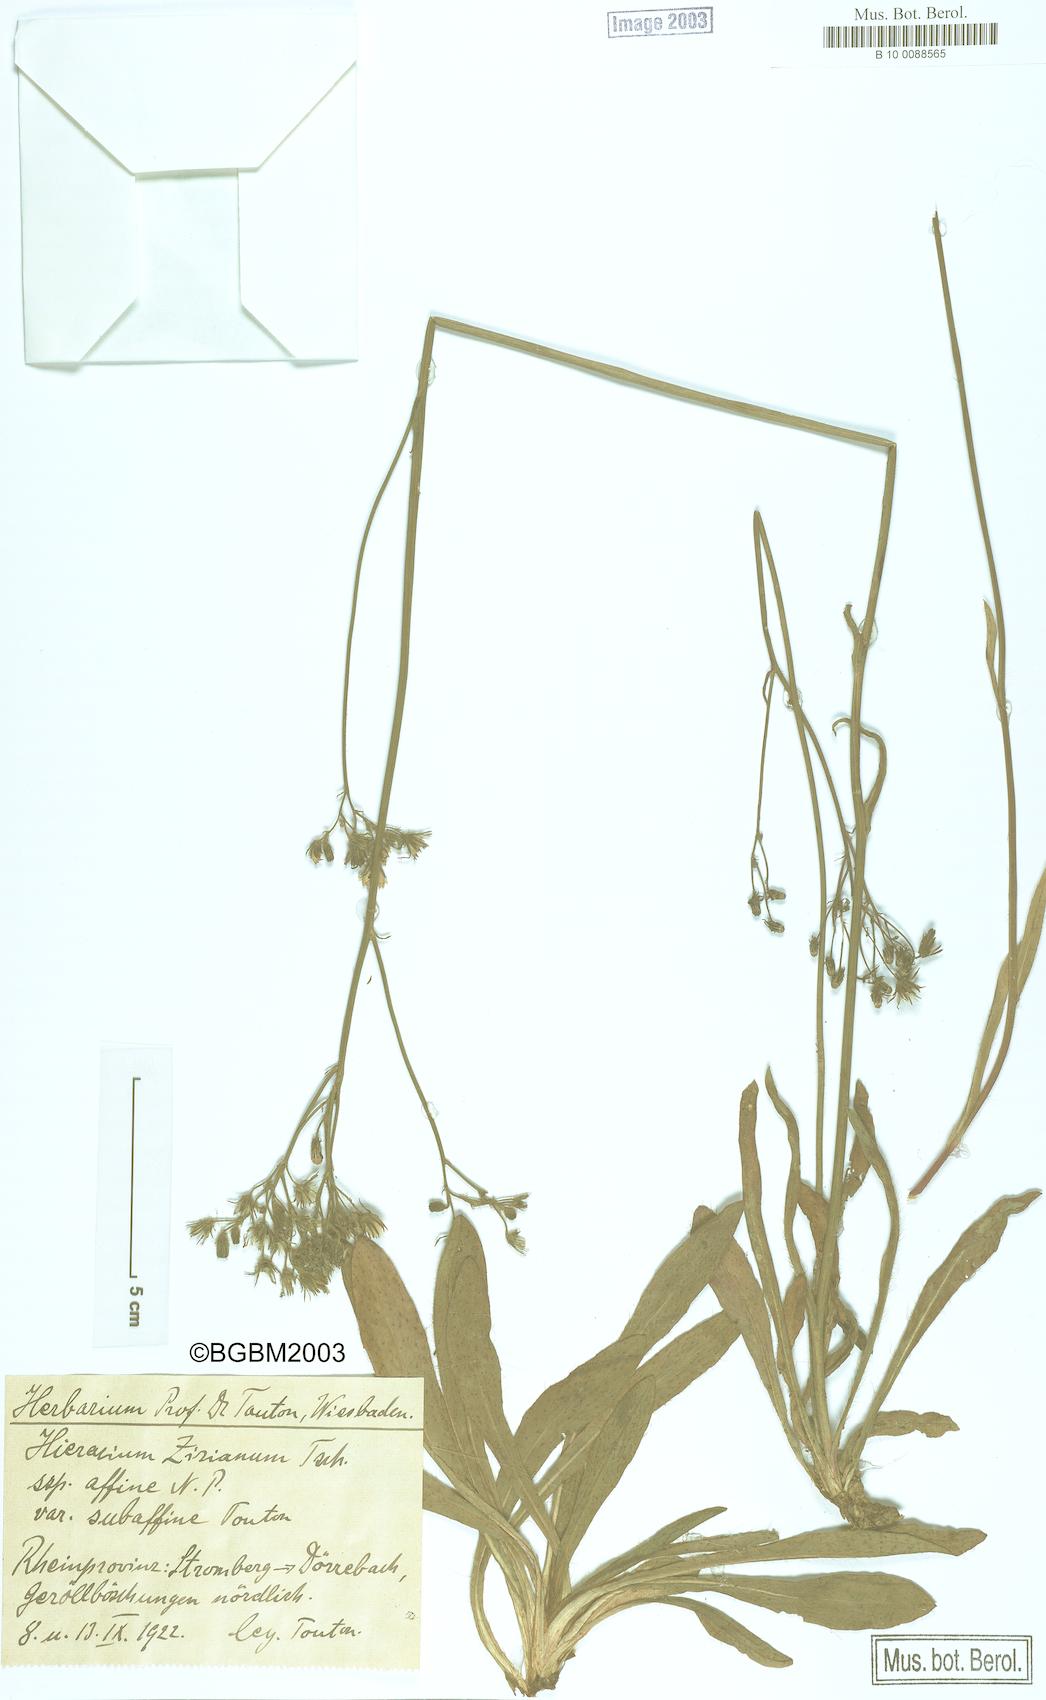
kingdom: Plantae
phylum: Tracheophyta
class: Magnoliopsida
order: Asterales
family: Asteraceae
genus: Pilosella
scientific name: Pilosella ziziana
